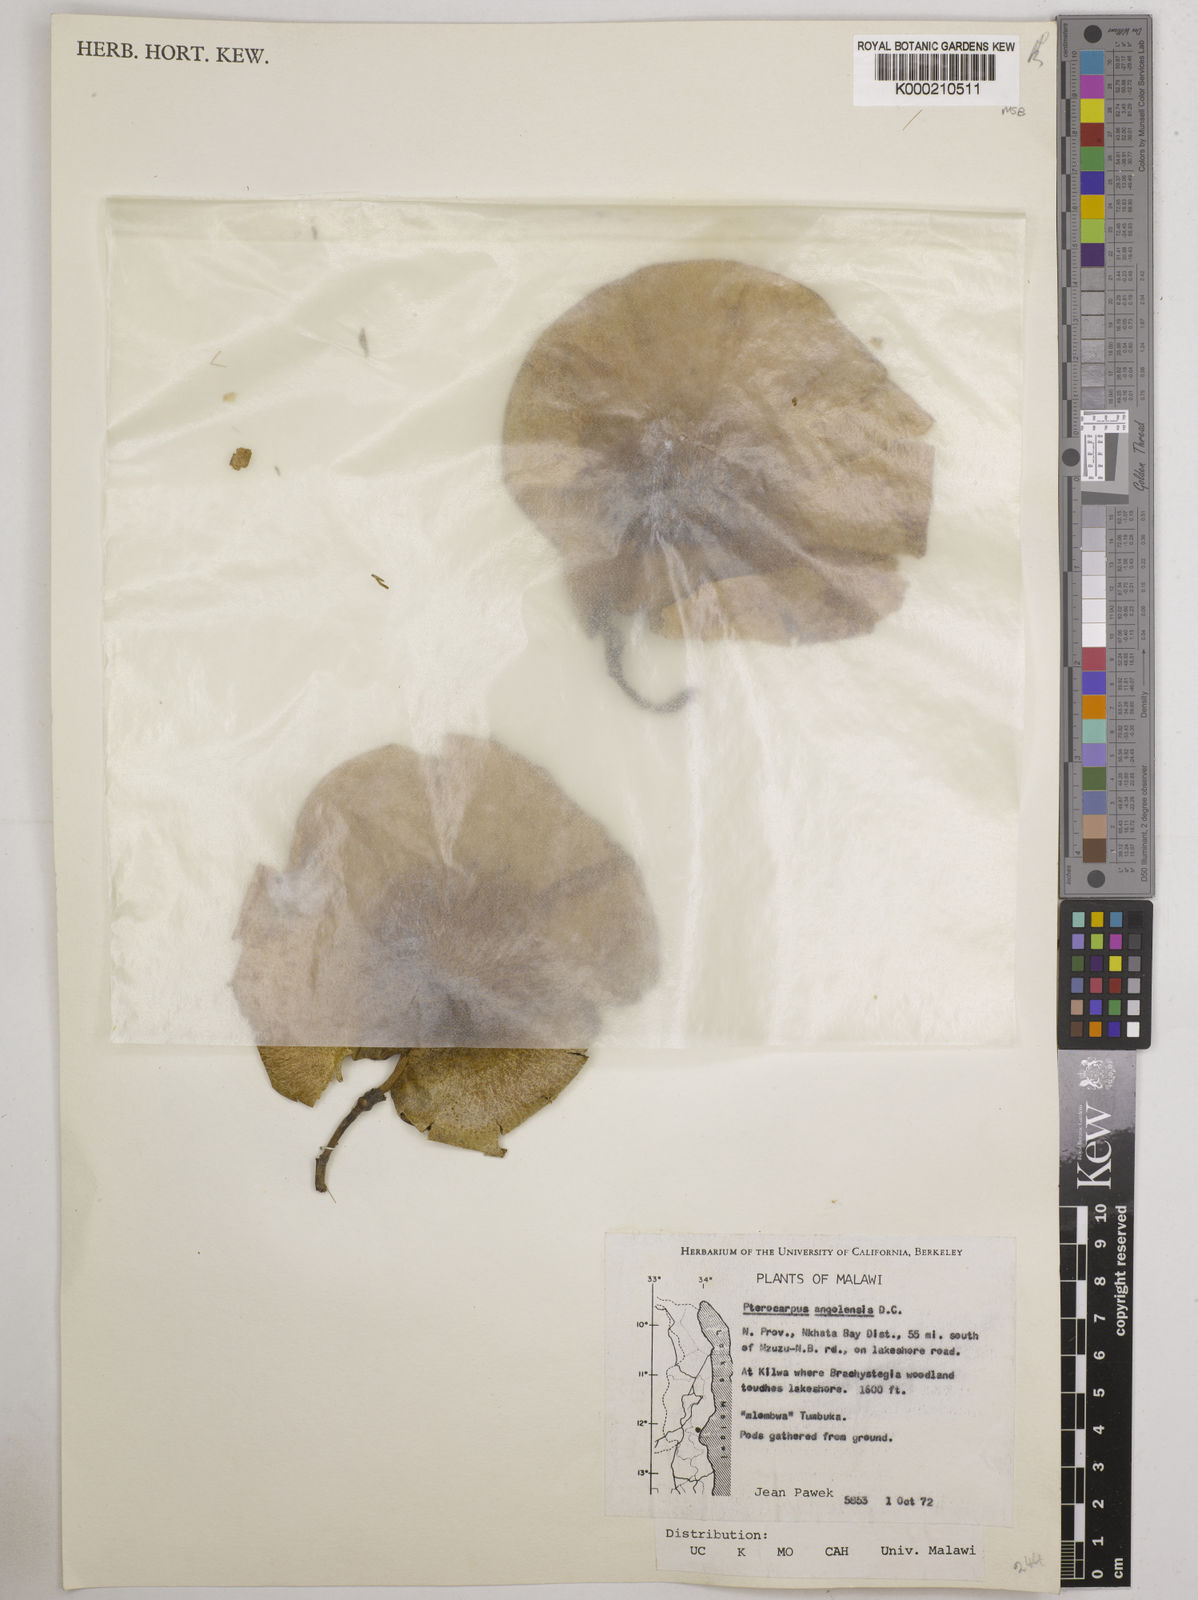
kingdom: Plantae
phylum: Tracheophyta
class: Magnoliopsida
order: Fabales
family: Fabaceae
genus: Pterocarpus
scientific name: Pterocarpus angolensis
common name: Bloodwood tree
